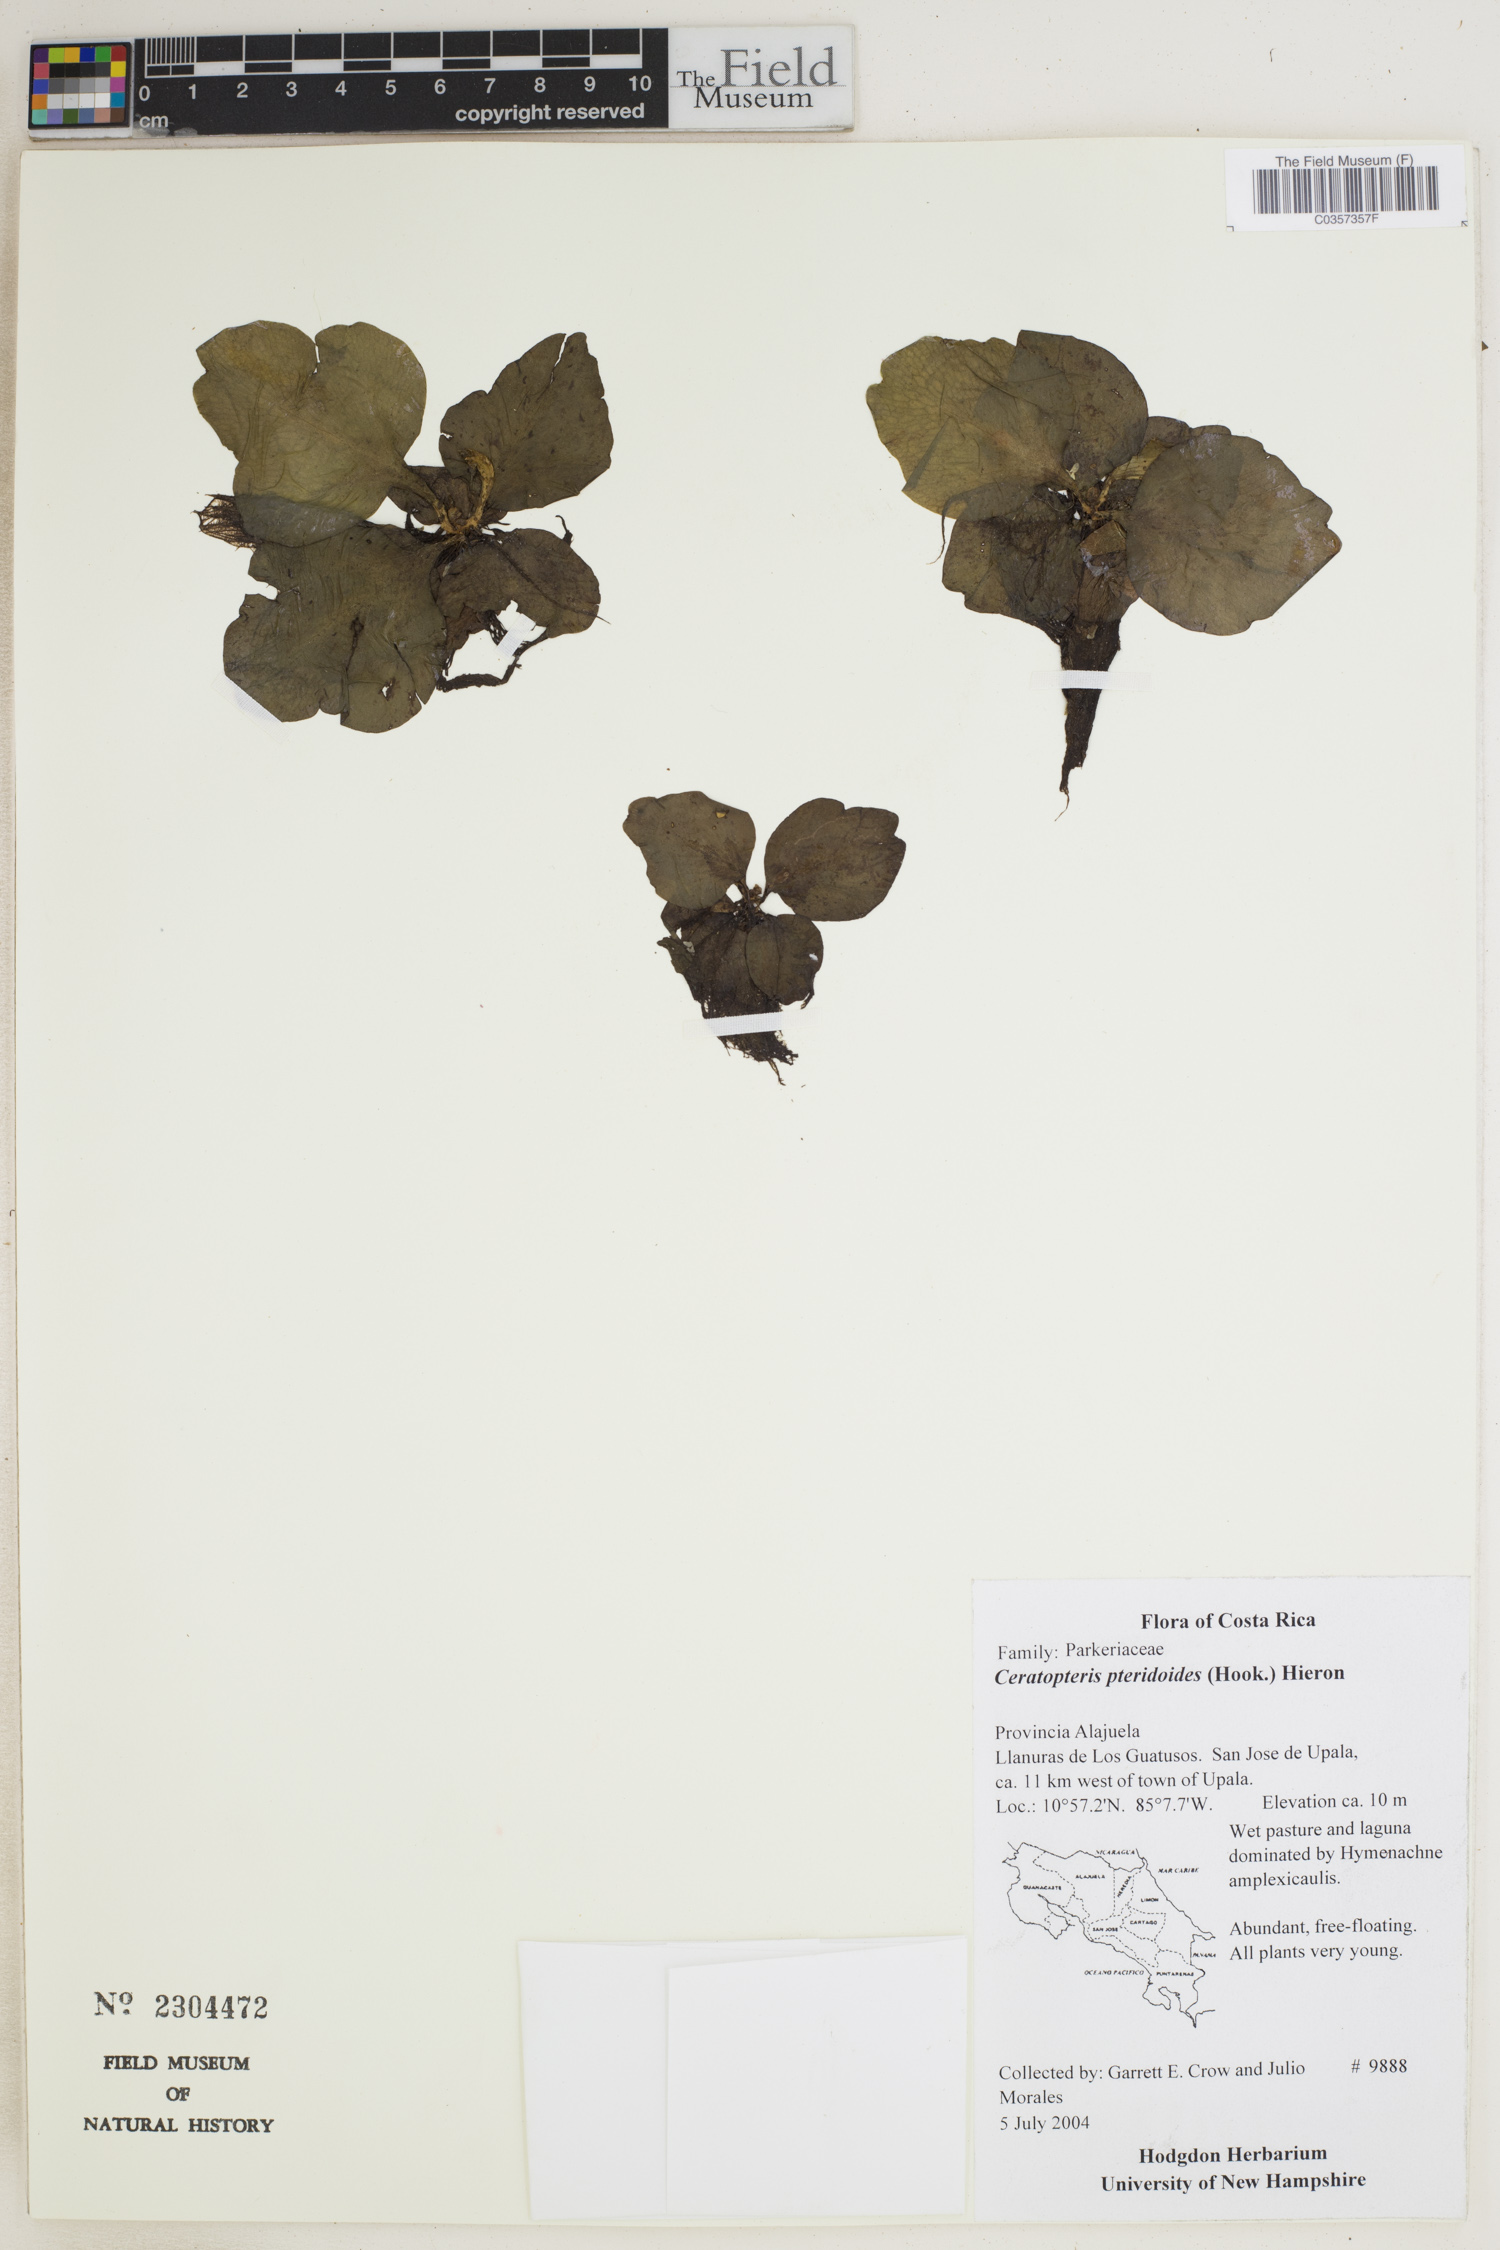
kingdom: Plantae
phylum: Tracheophyta
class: Polypodiopsida
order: Polypodiales
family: Pteridaceae
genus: Ceratopteris
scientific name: Ceratopteris pteridoides
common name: Floating fern
